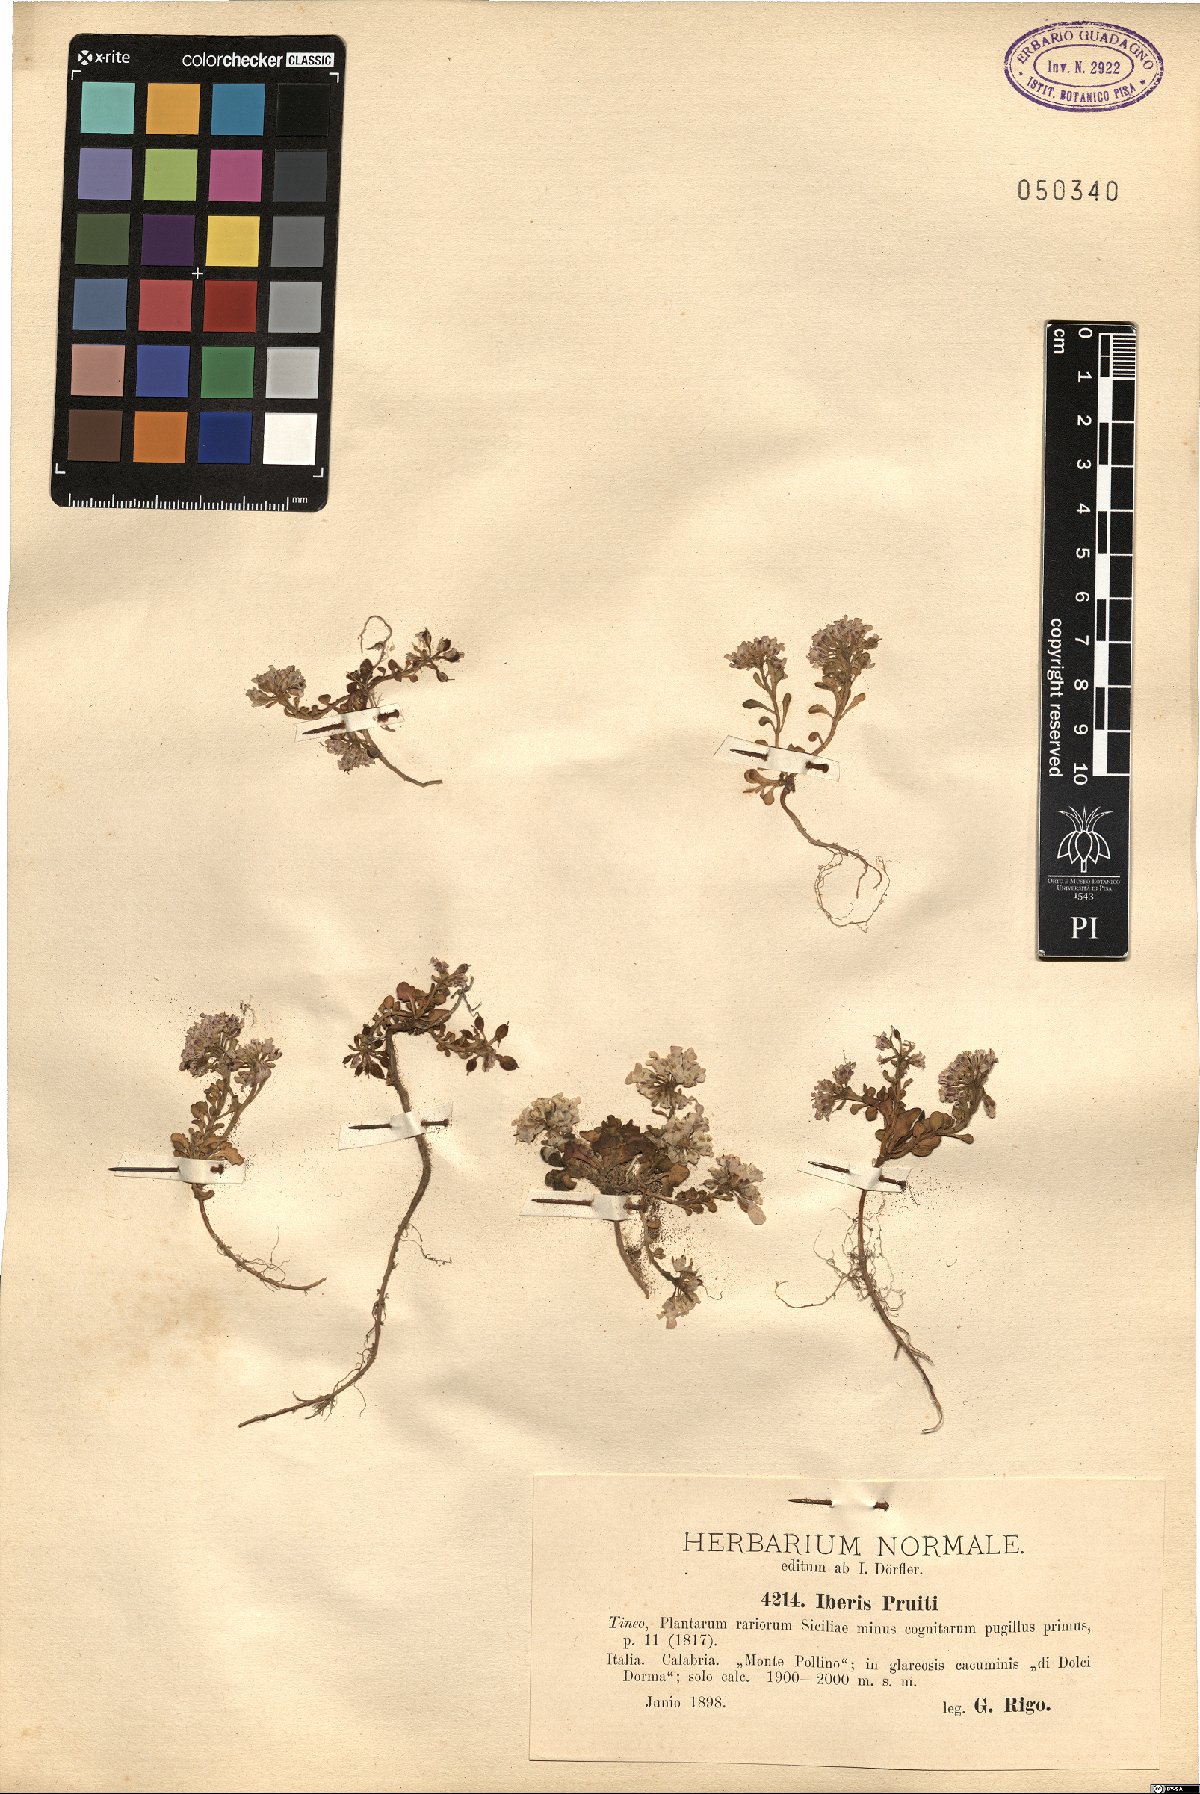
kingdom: Plantae
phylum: Tracheophyta
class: Magnoliopsida
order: Brassicales
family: Brassicaceae
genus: Iberis
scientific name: Iberis carnosa
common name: Pruit's candytuft
